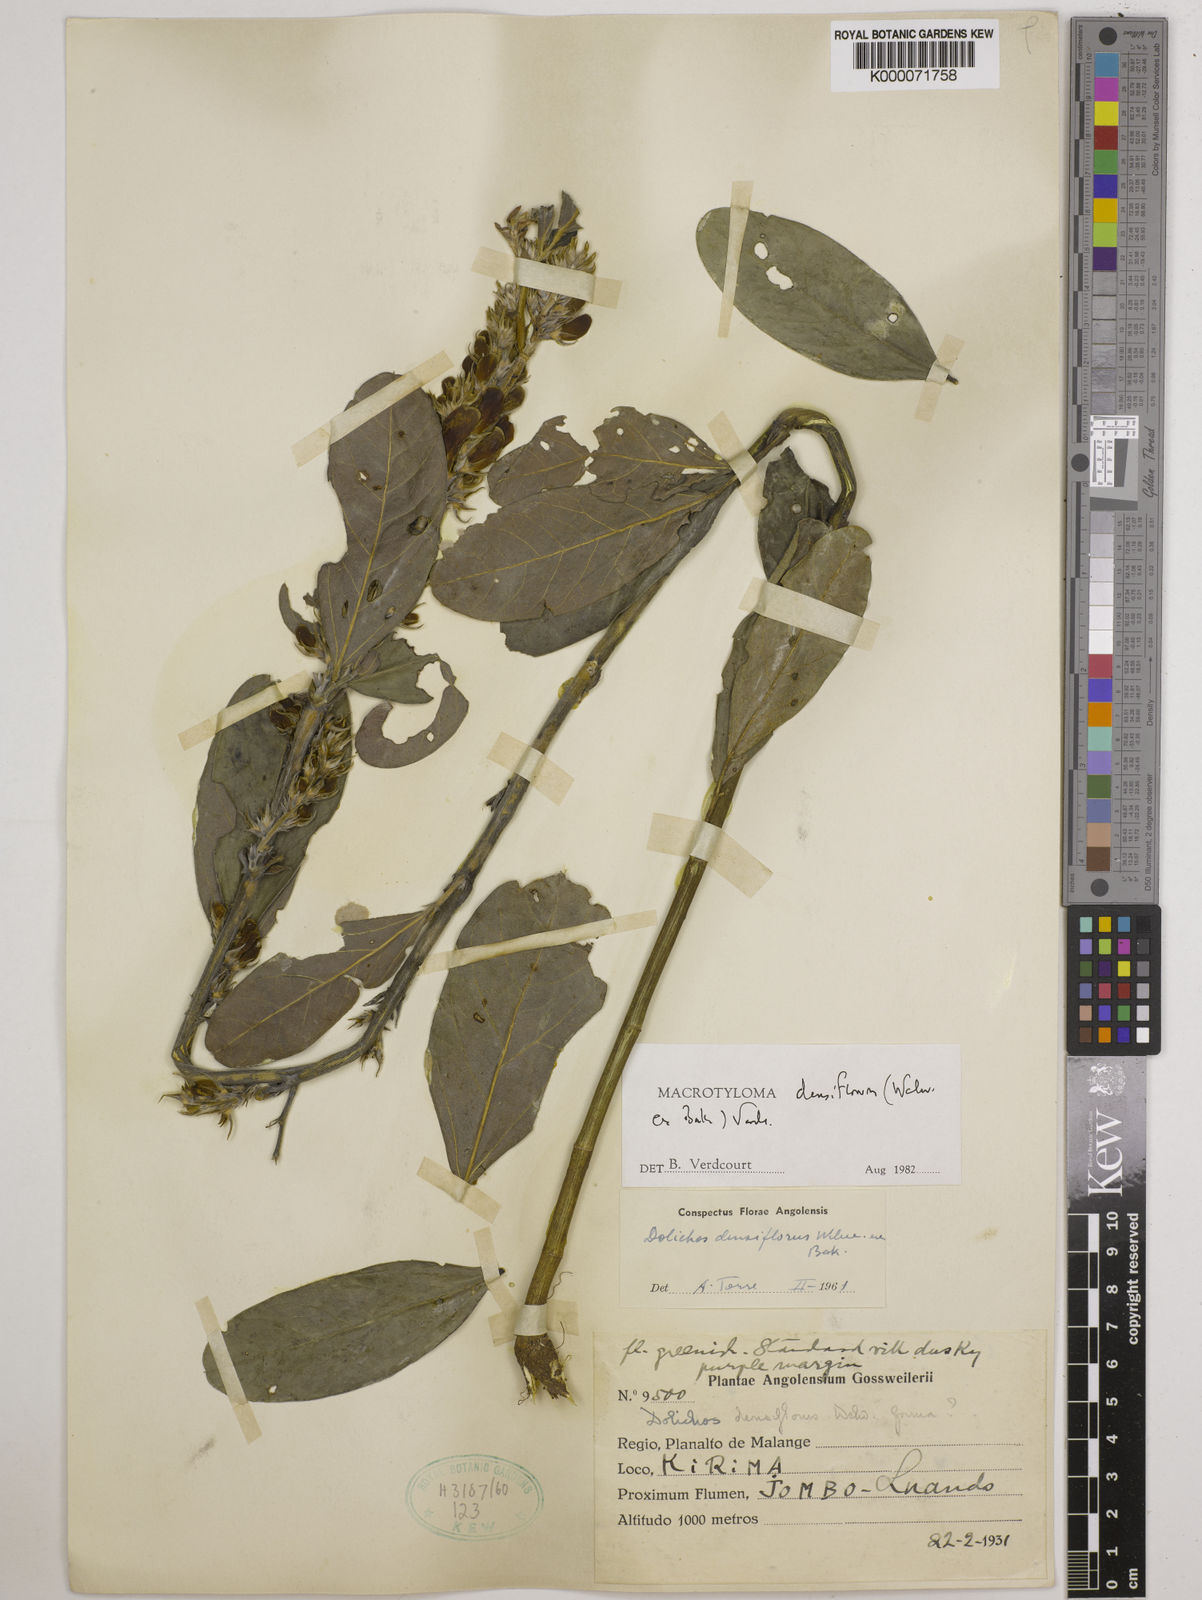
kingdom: Plantae
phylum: Tracheophyta
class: Magnoliopsida
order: Fabales
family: Fabaceae
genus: Macrotyloma
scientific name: Macrotyloma densiflorum
